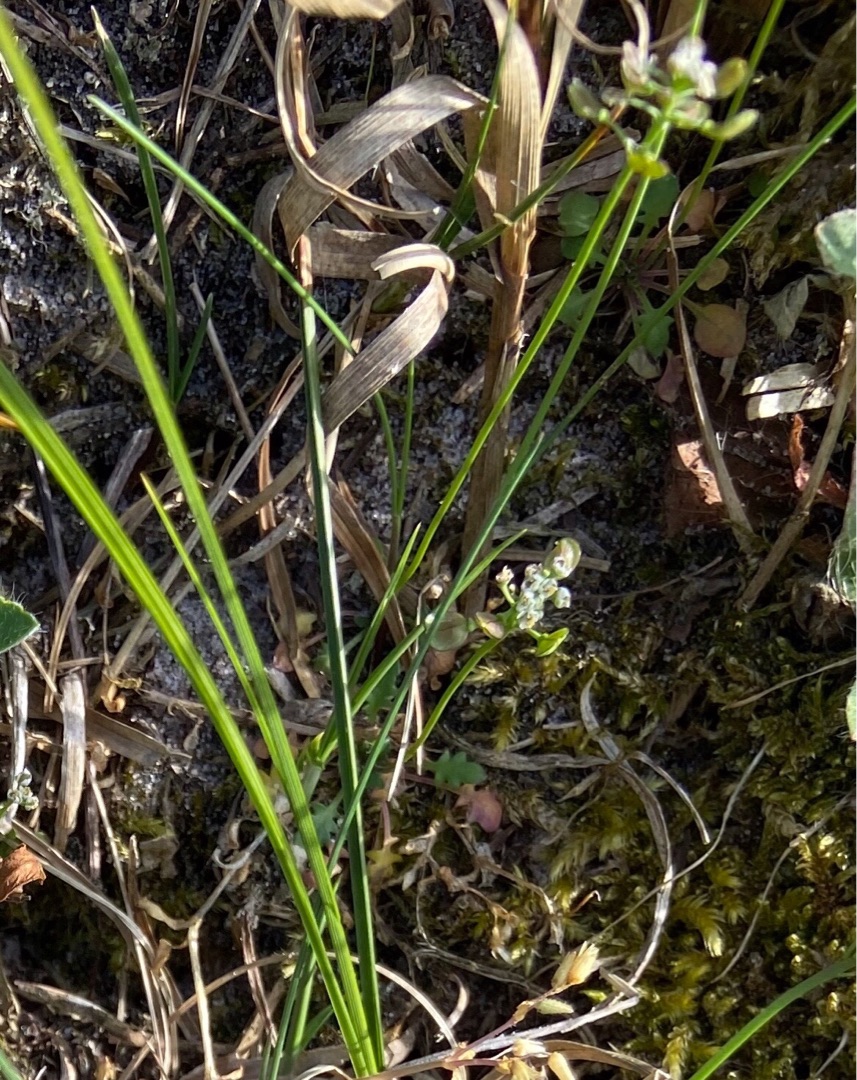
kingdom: Plantae
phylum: Tracheophyta
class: Magnoliopsida
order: Brassicales
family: Brassicaceae
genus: Teesdalia
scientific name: Teesdalia nudicaulis
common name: Flipkrave
